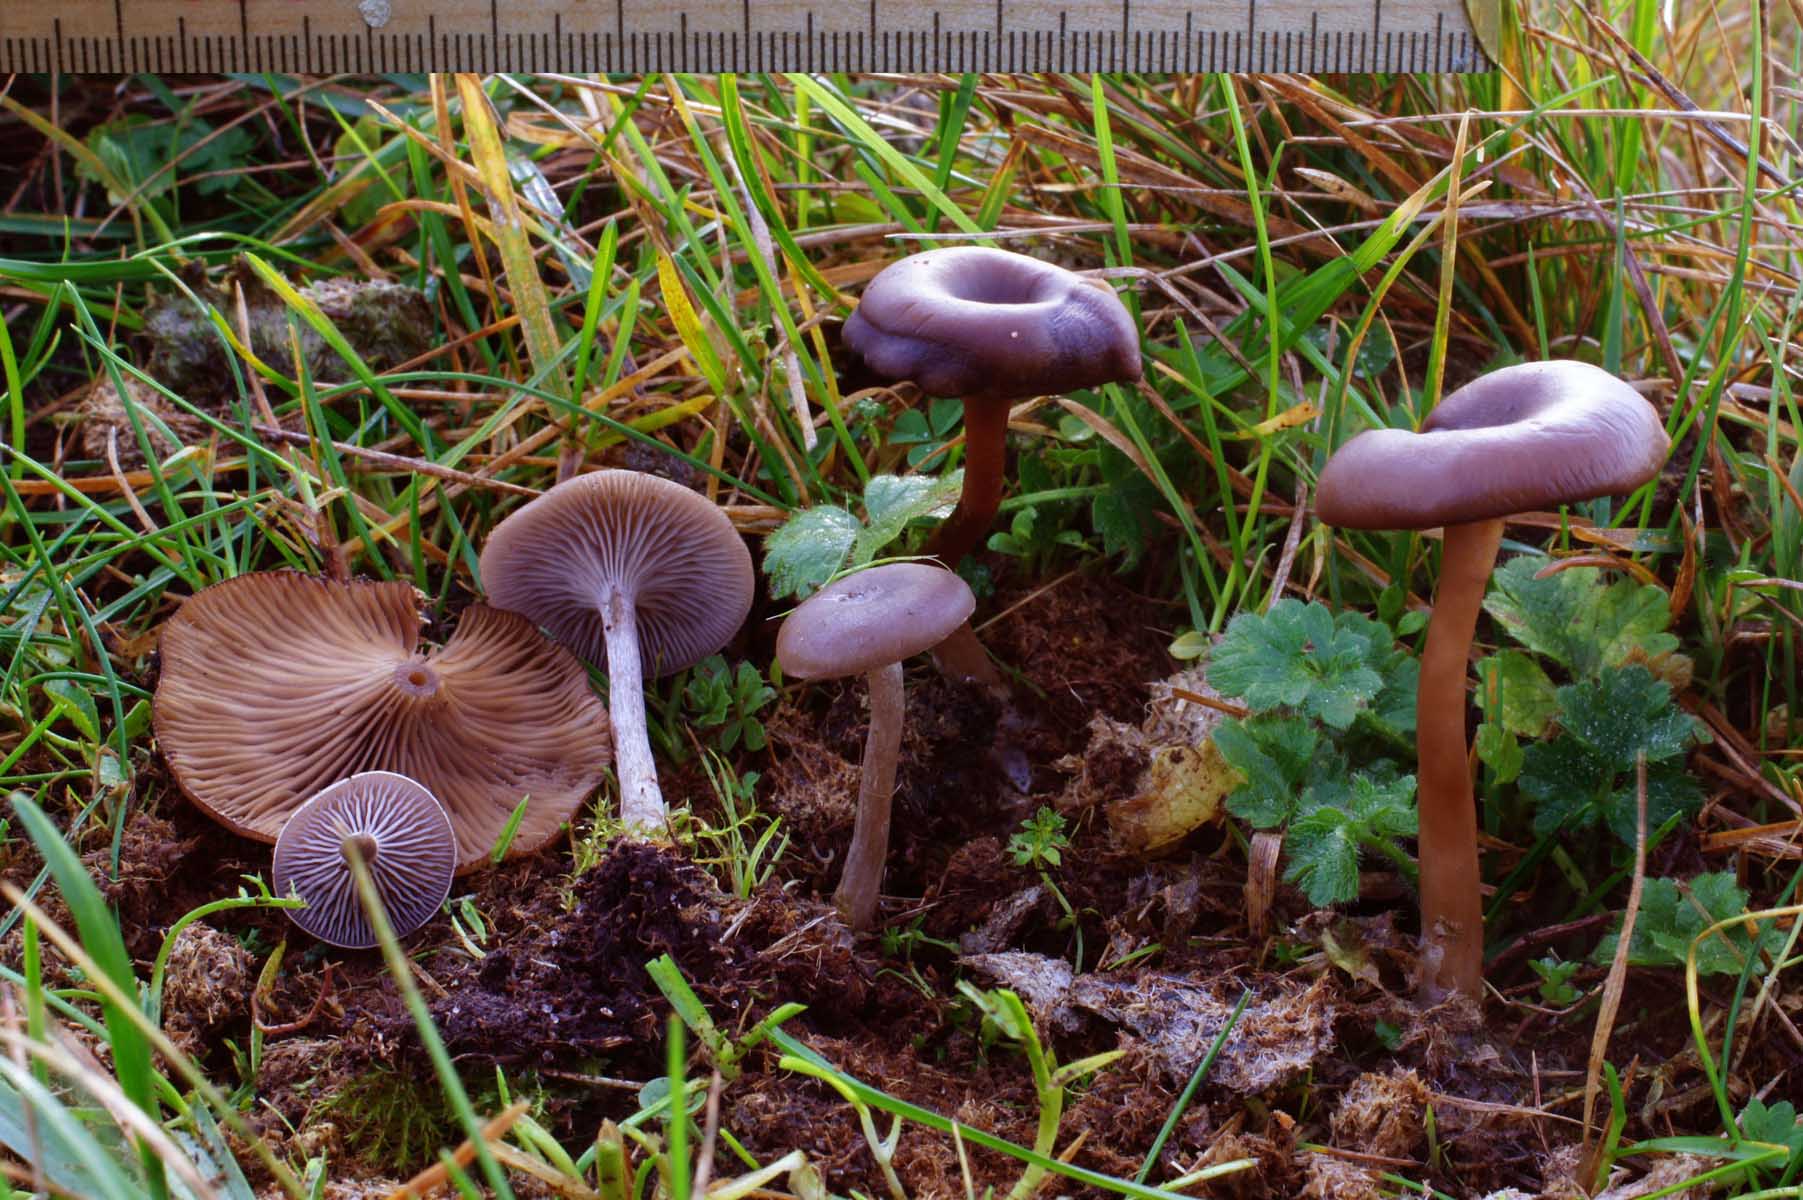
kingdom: Fungi
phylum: Basidiomycota
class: Agaricomycetes
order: Agaricales
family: Pseudoclitocybaceae
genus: Pseudoclitocybe
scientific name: Pseudoclitocybe expallens
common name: lille bægertragthat
